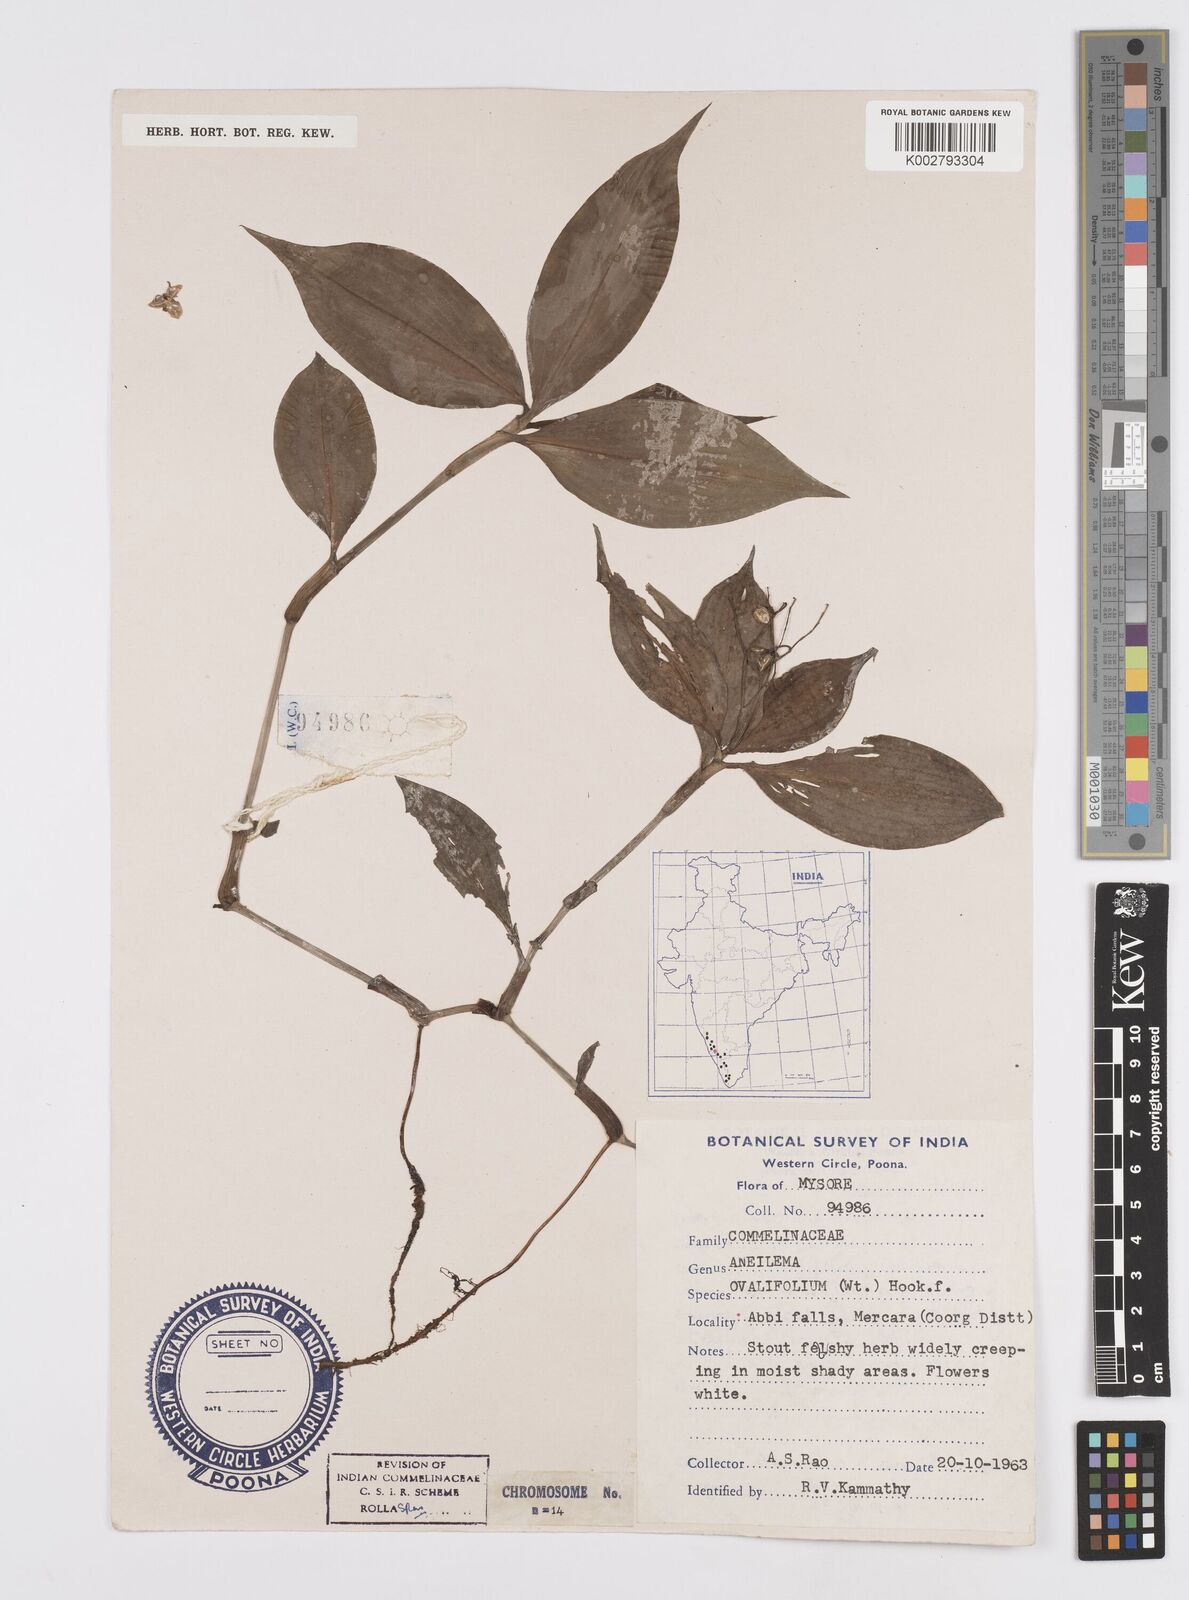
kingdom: Plantae
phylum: Tracheophyta
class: Liliopsida
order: Commelinales
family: Commelinaceae
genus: Murdannia
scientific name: Murdannia
